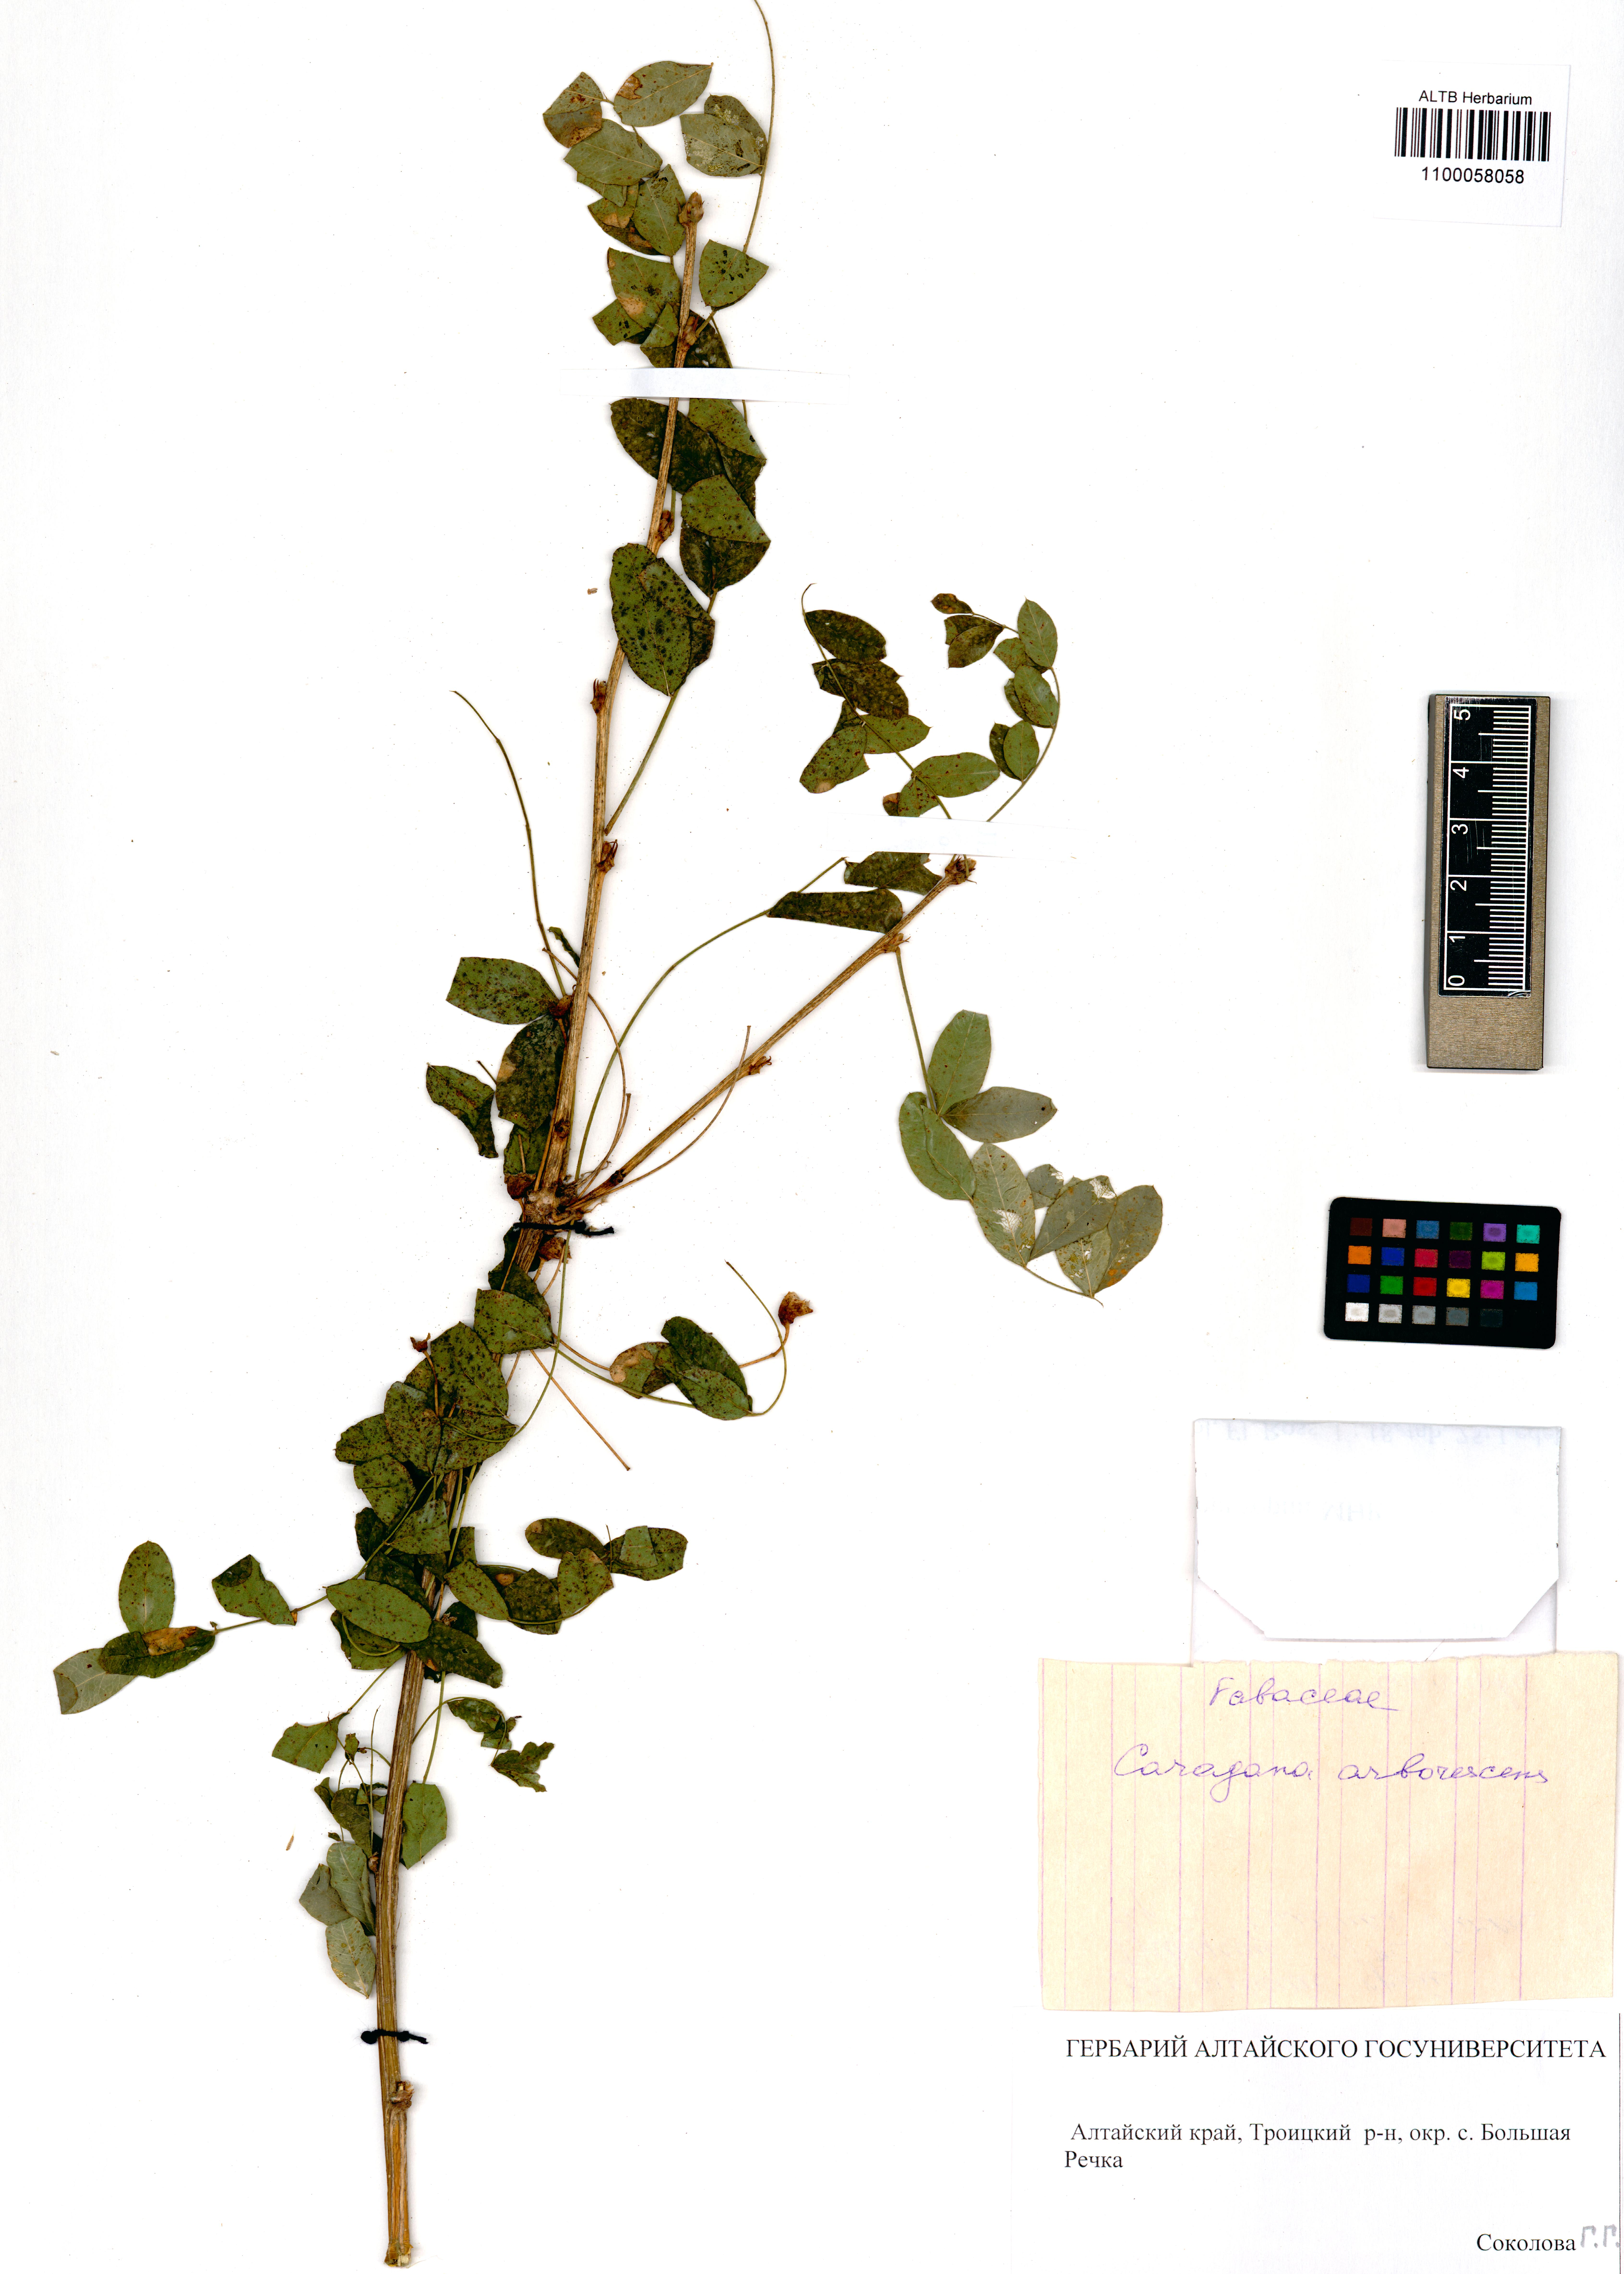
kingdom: Plantae
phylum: Tracheophyta
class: Magnoliopsida
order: Fabales
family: Fabaceae
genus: Caragana
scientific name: Caragana arborescens
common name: Siberian peashrub
